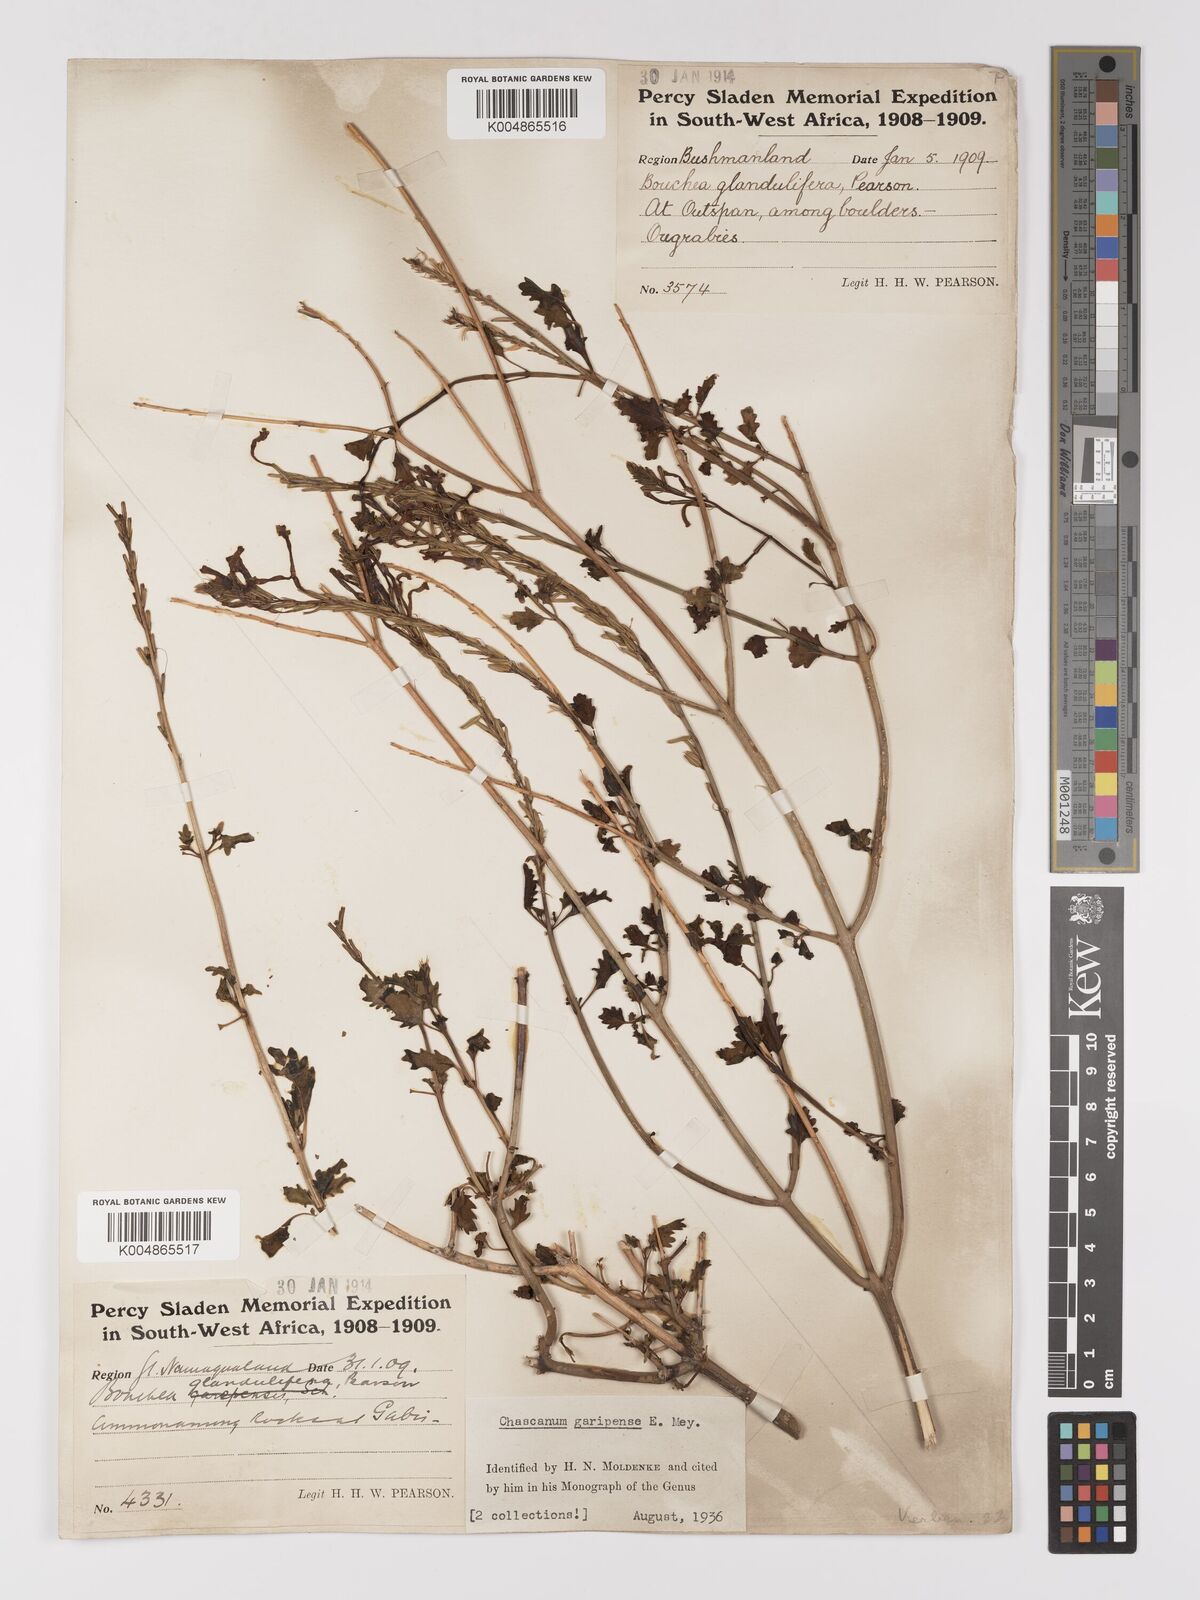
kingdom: Plantae
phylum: Tracheophyta
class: Magnoliopsida
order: Lamiales
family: Verbenaceae
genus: Chascanum
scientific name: Chascanum garipense
